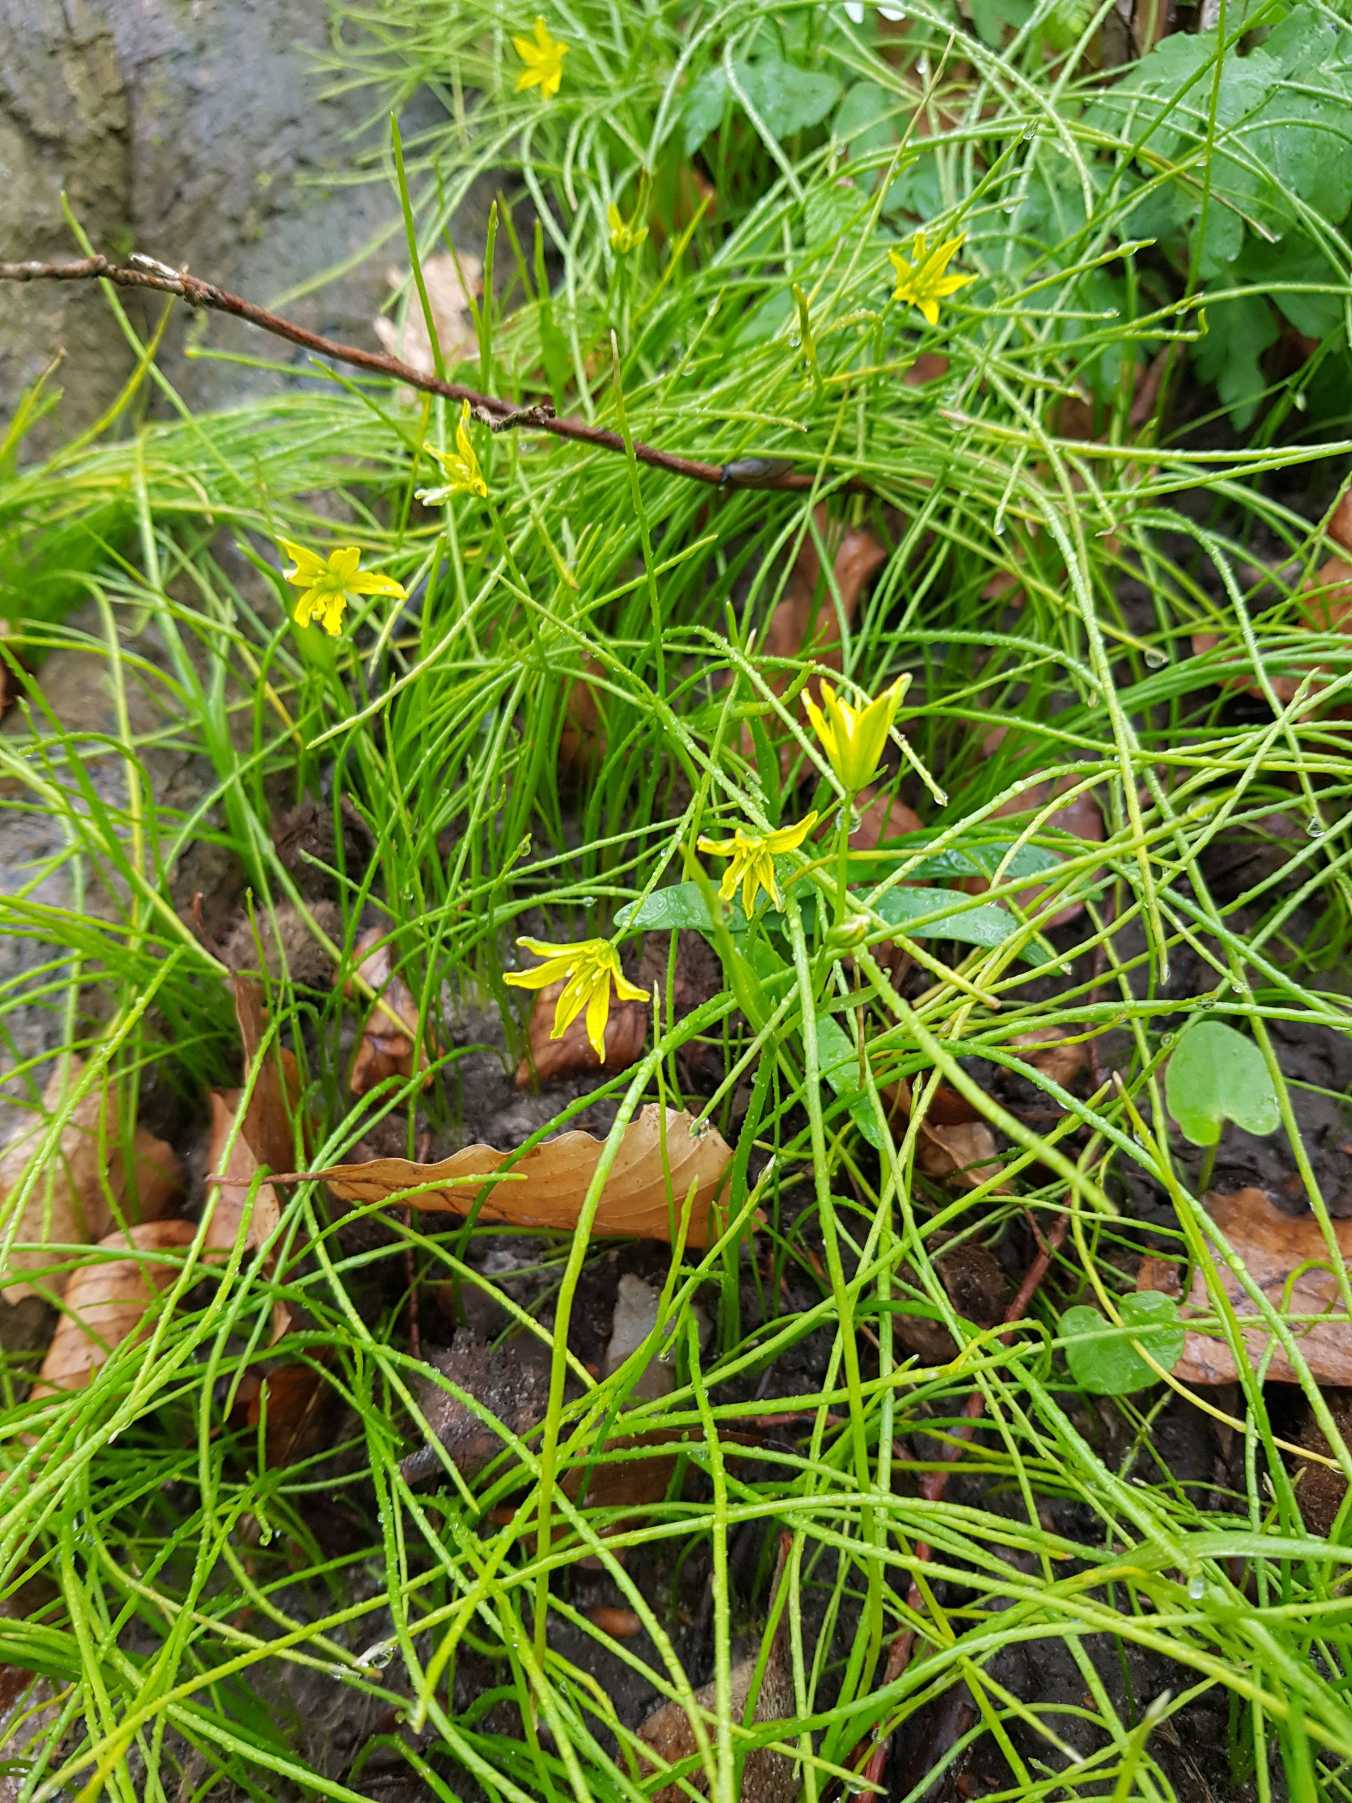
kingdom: Plantae
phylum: Tracheophyta
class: Liliopsida
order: Liliales
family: Liliaceae
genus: Gagea
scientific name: Gagea spathacea
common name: Hylster-guldstjerne
